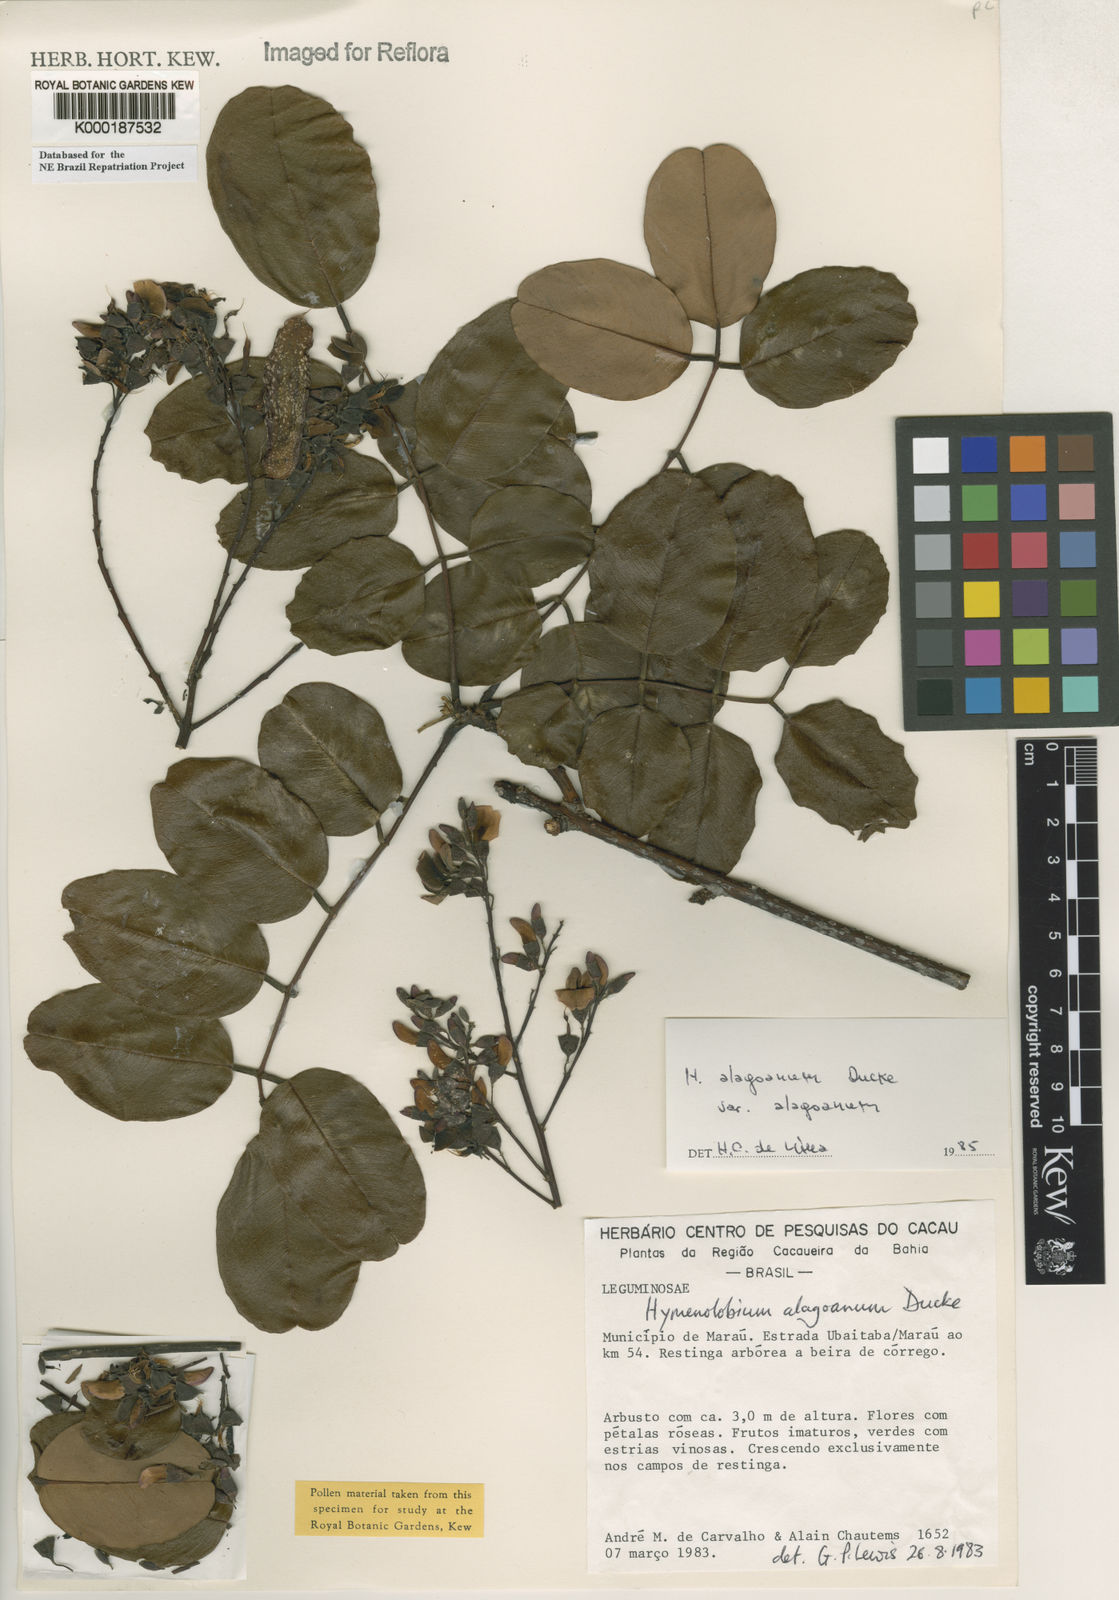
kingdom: Plantae
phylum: Tracheophyta
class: Magnoliopsida
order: Fabales
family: Fabaceae
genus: Hymenolobium
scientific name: Hymenolobium alagoanum
